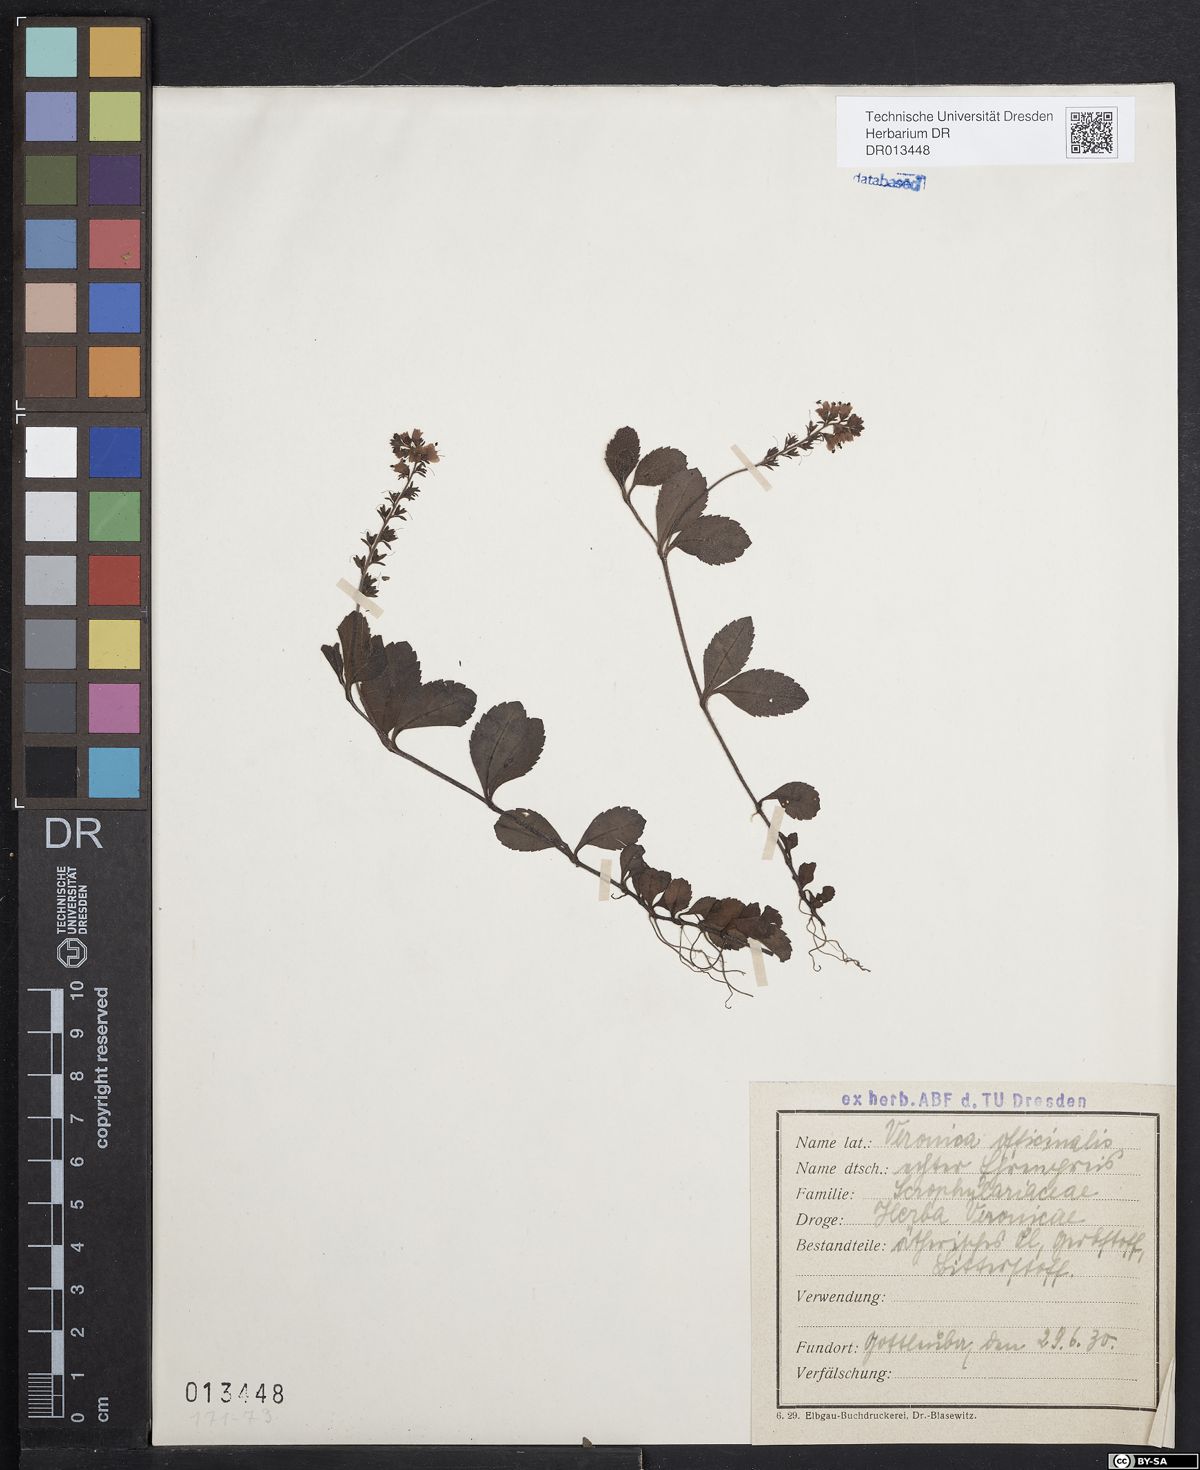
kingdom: Plantae
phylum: Tracheophyta
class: Magnoliopsida
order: Lamiales
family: Plantaginaceae
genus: Veronica
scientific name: Veronica officinalis
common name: Common speedwell
